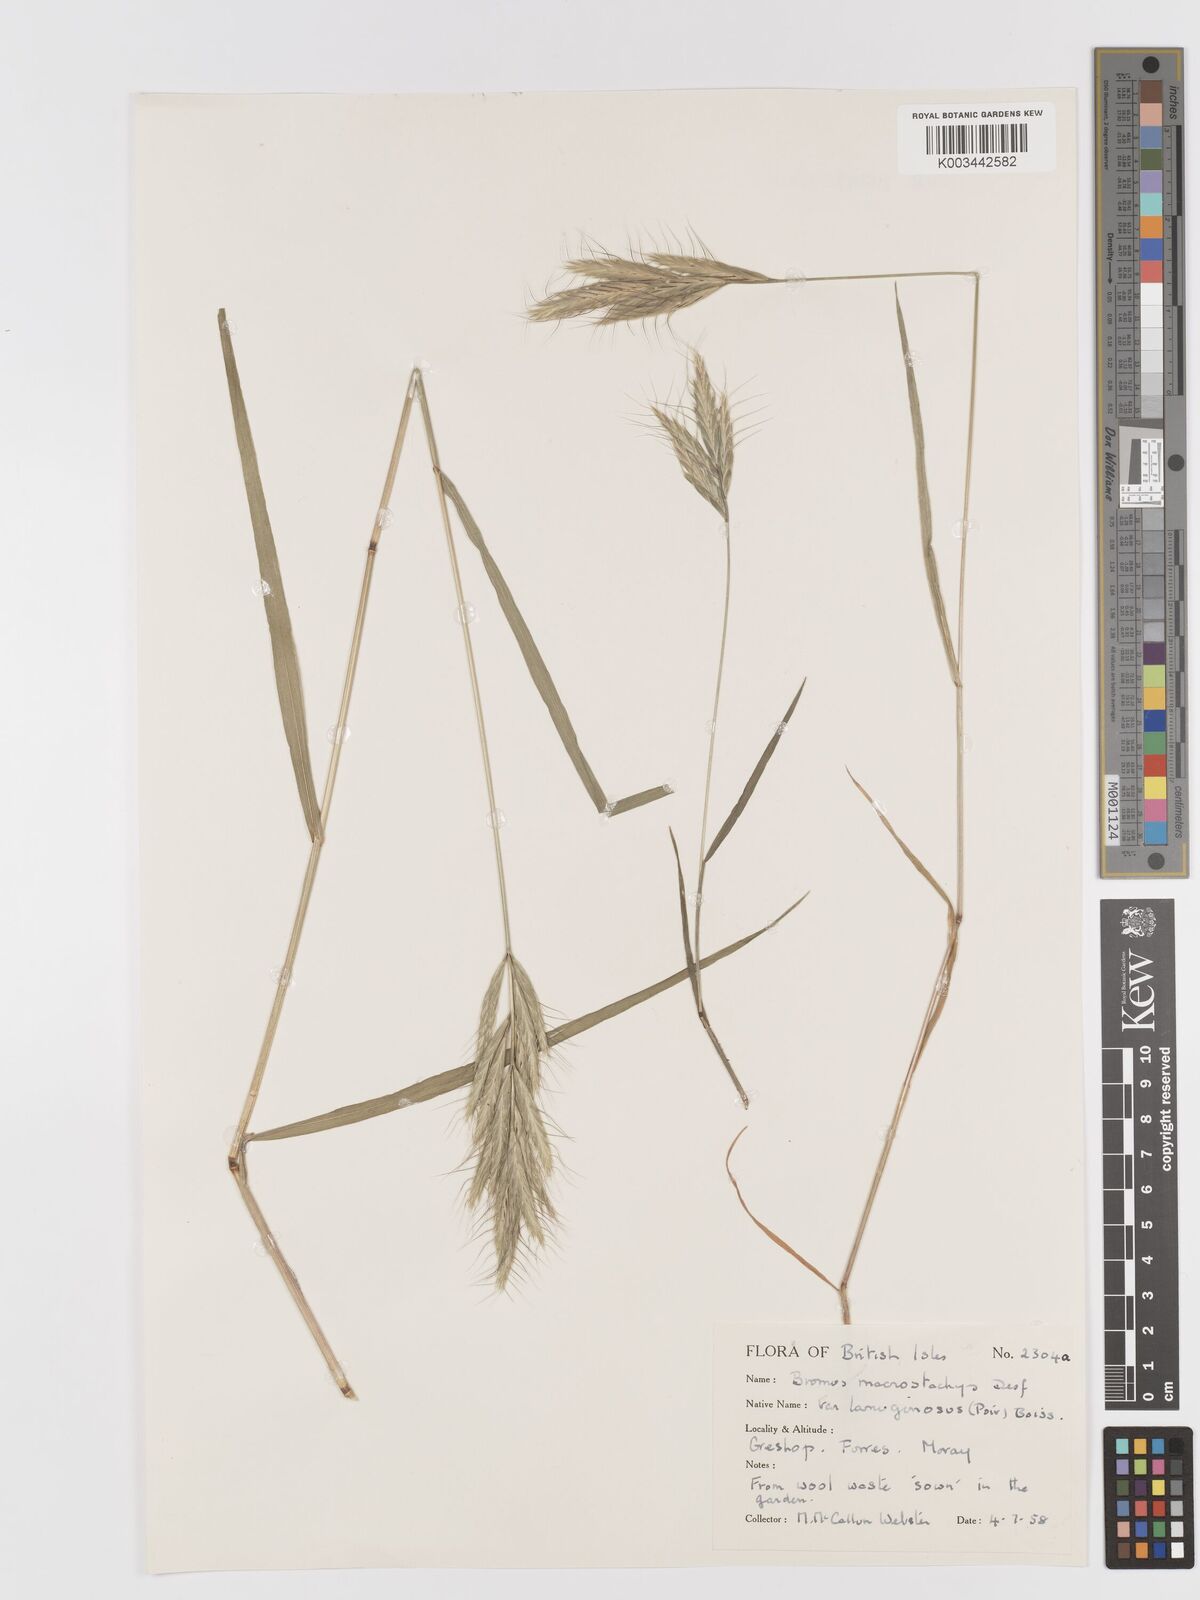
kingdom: Plantae
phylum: Tracheophyta
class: Liliopsida
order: Poales
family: Poaceae
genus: Bromus
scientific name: Bromus lanceolatus
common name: Mediterranean brome
